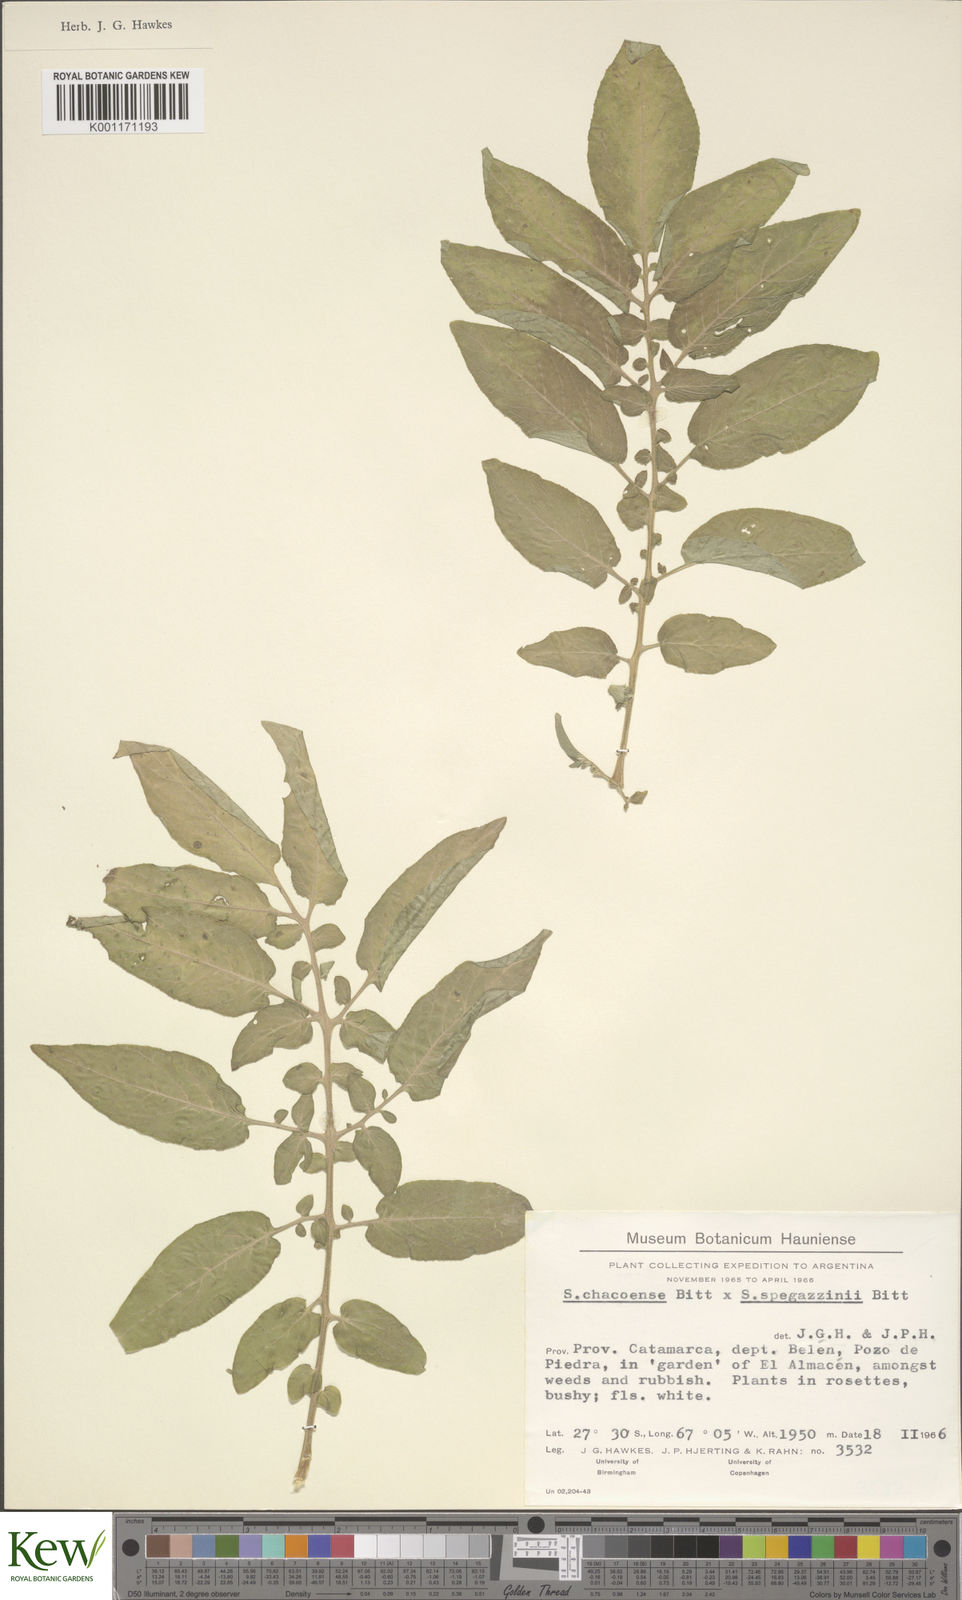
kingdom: Plantae
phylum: Tracheophyta
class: Magnoliopsida
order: Solanales
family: Solanaceae
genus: Solanum
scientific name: Solanum chacoense
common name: Chaco potato
